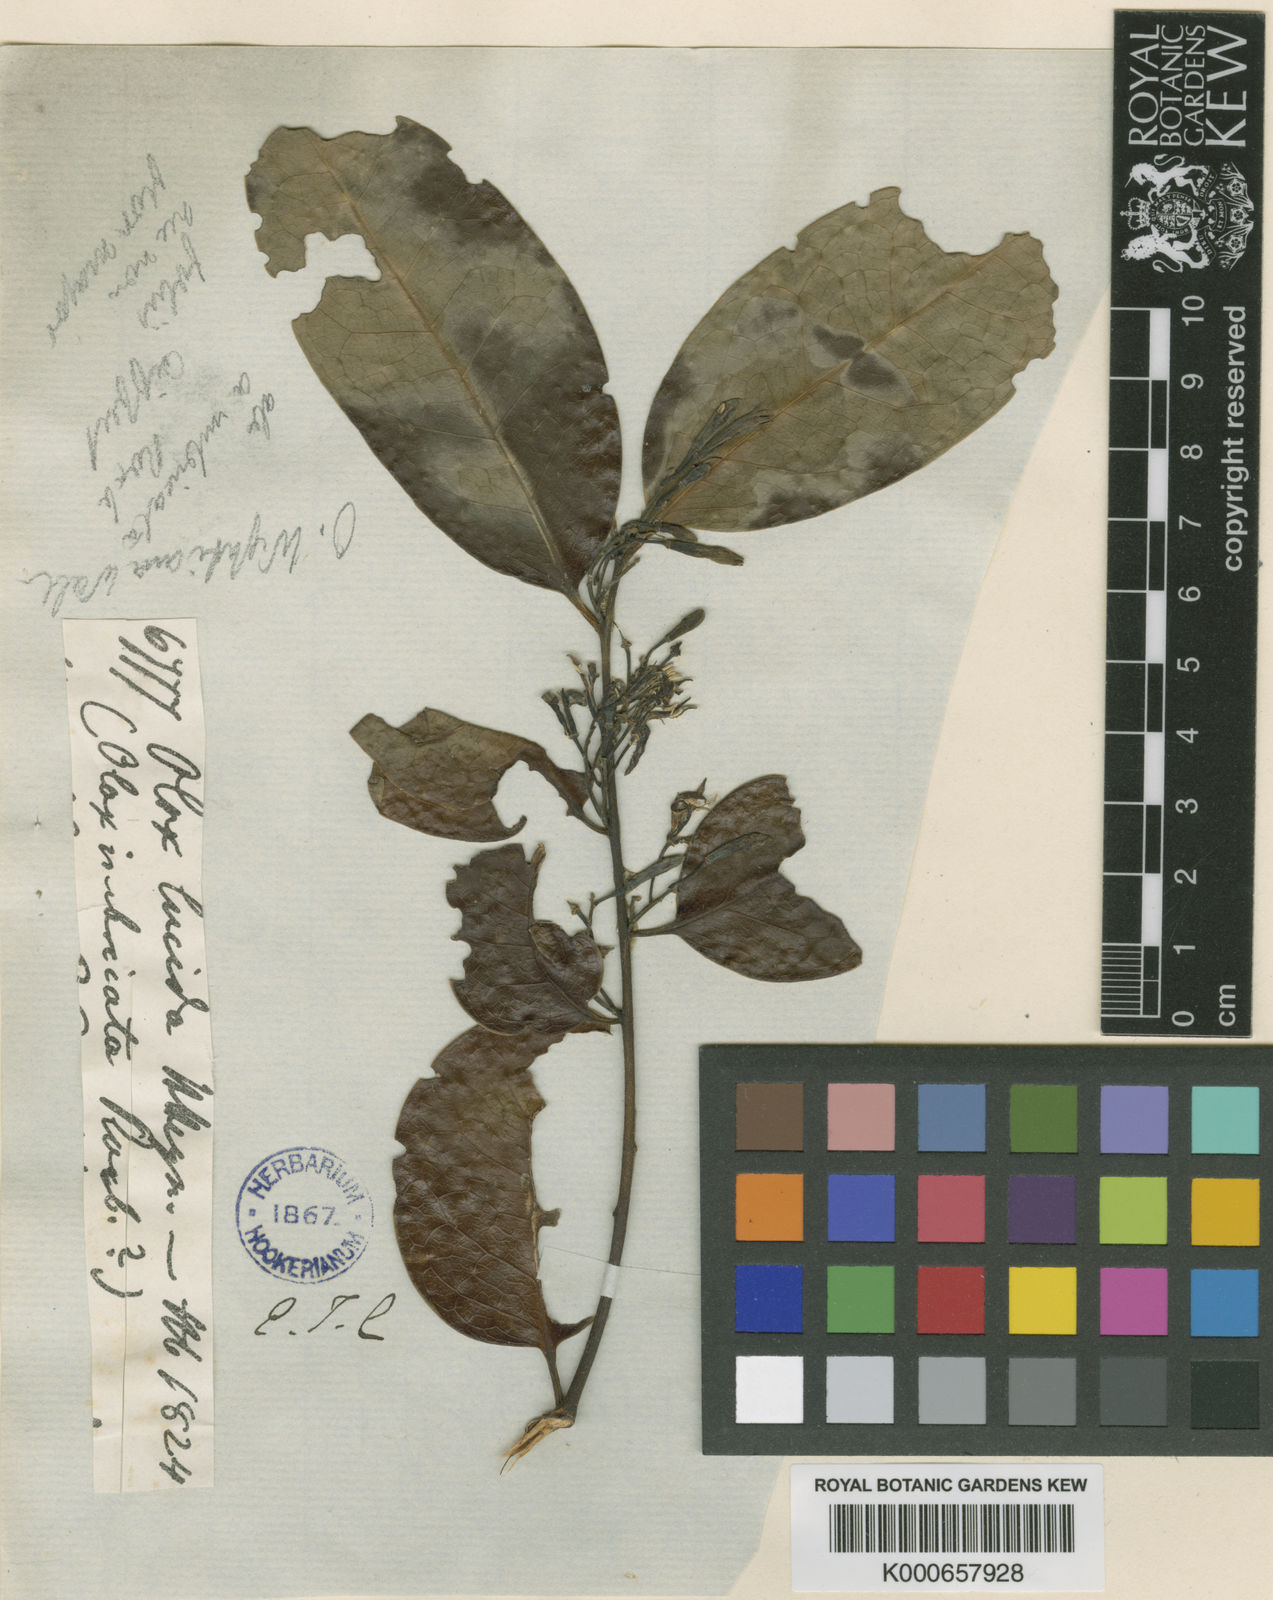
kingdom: Plantae
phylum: Tracheophyta
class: Magnoliopsida
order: Santalales
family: Olacaceae
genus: Olax
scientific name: Olax imbricata
